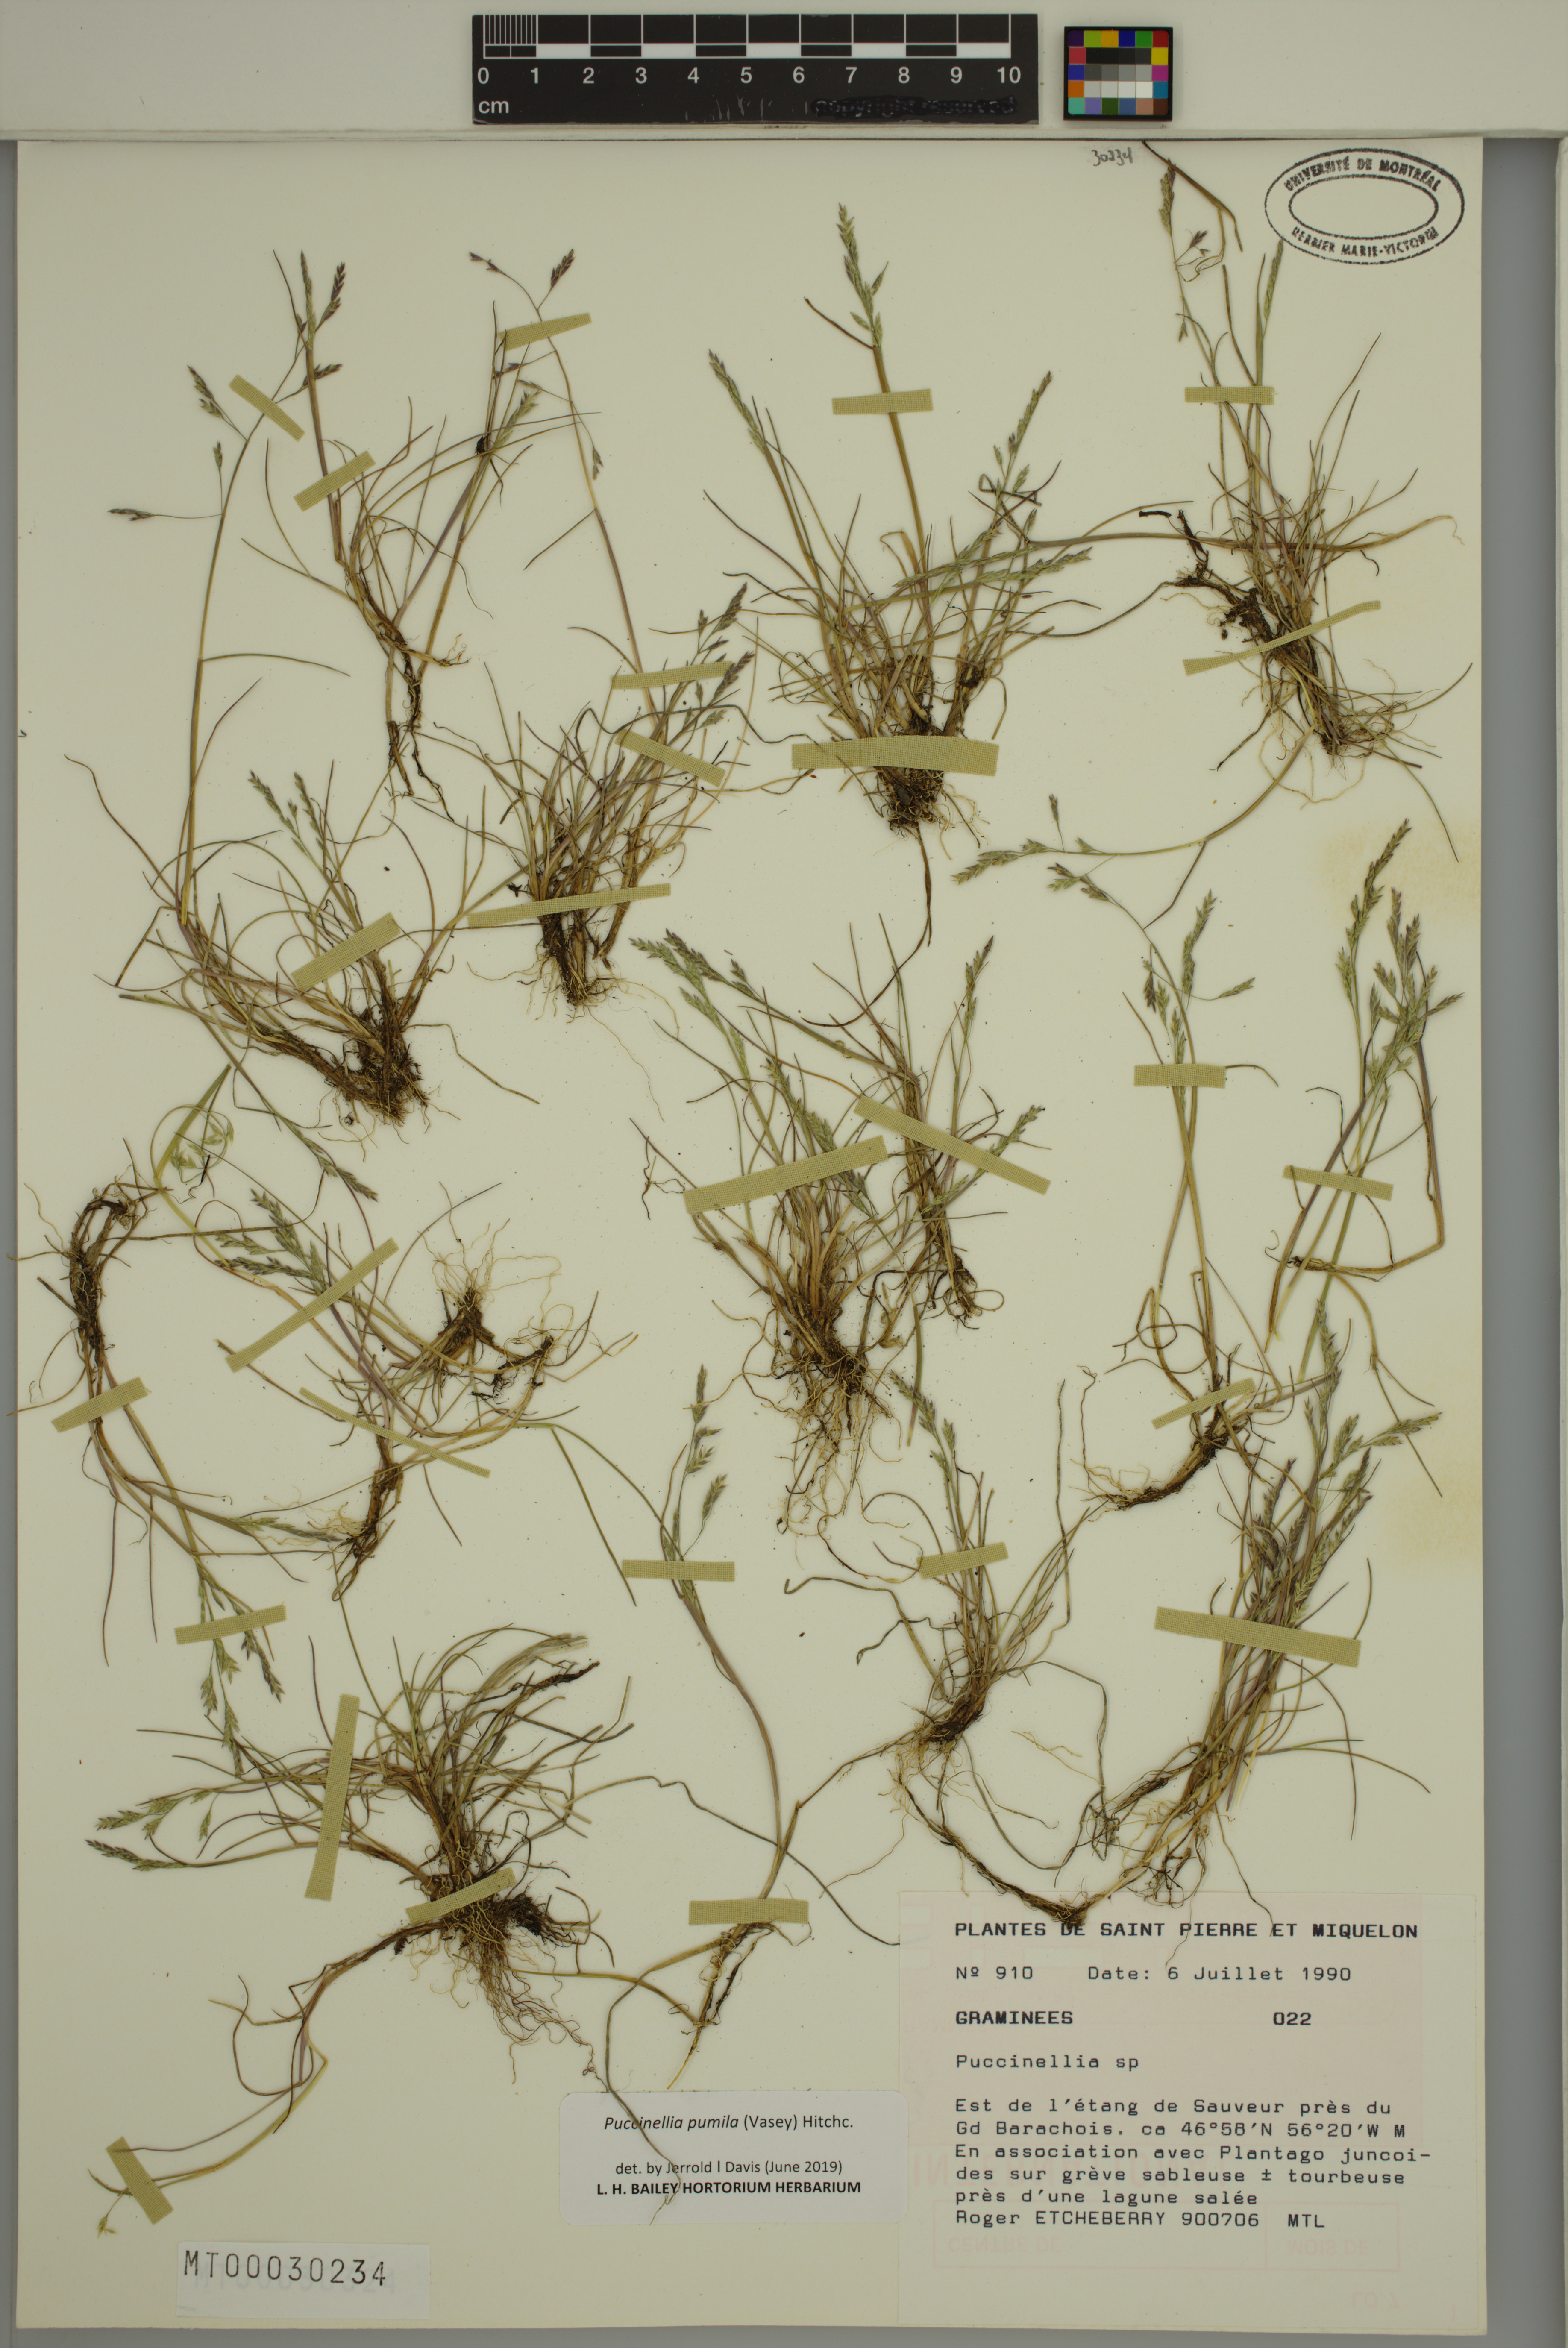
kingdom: Plantae
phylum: Tracheophyta
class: Liliopsida
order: Poales
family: Poaceae
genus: Puccinellia
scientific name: Puccinellia pumila
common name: Dwarf alkaligrass
